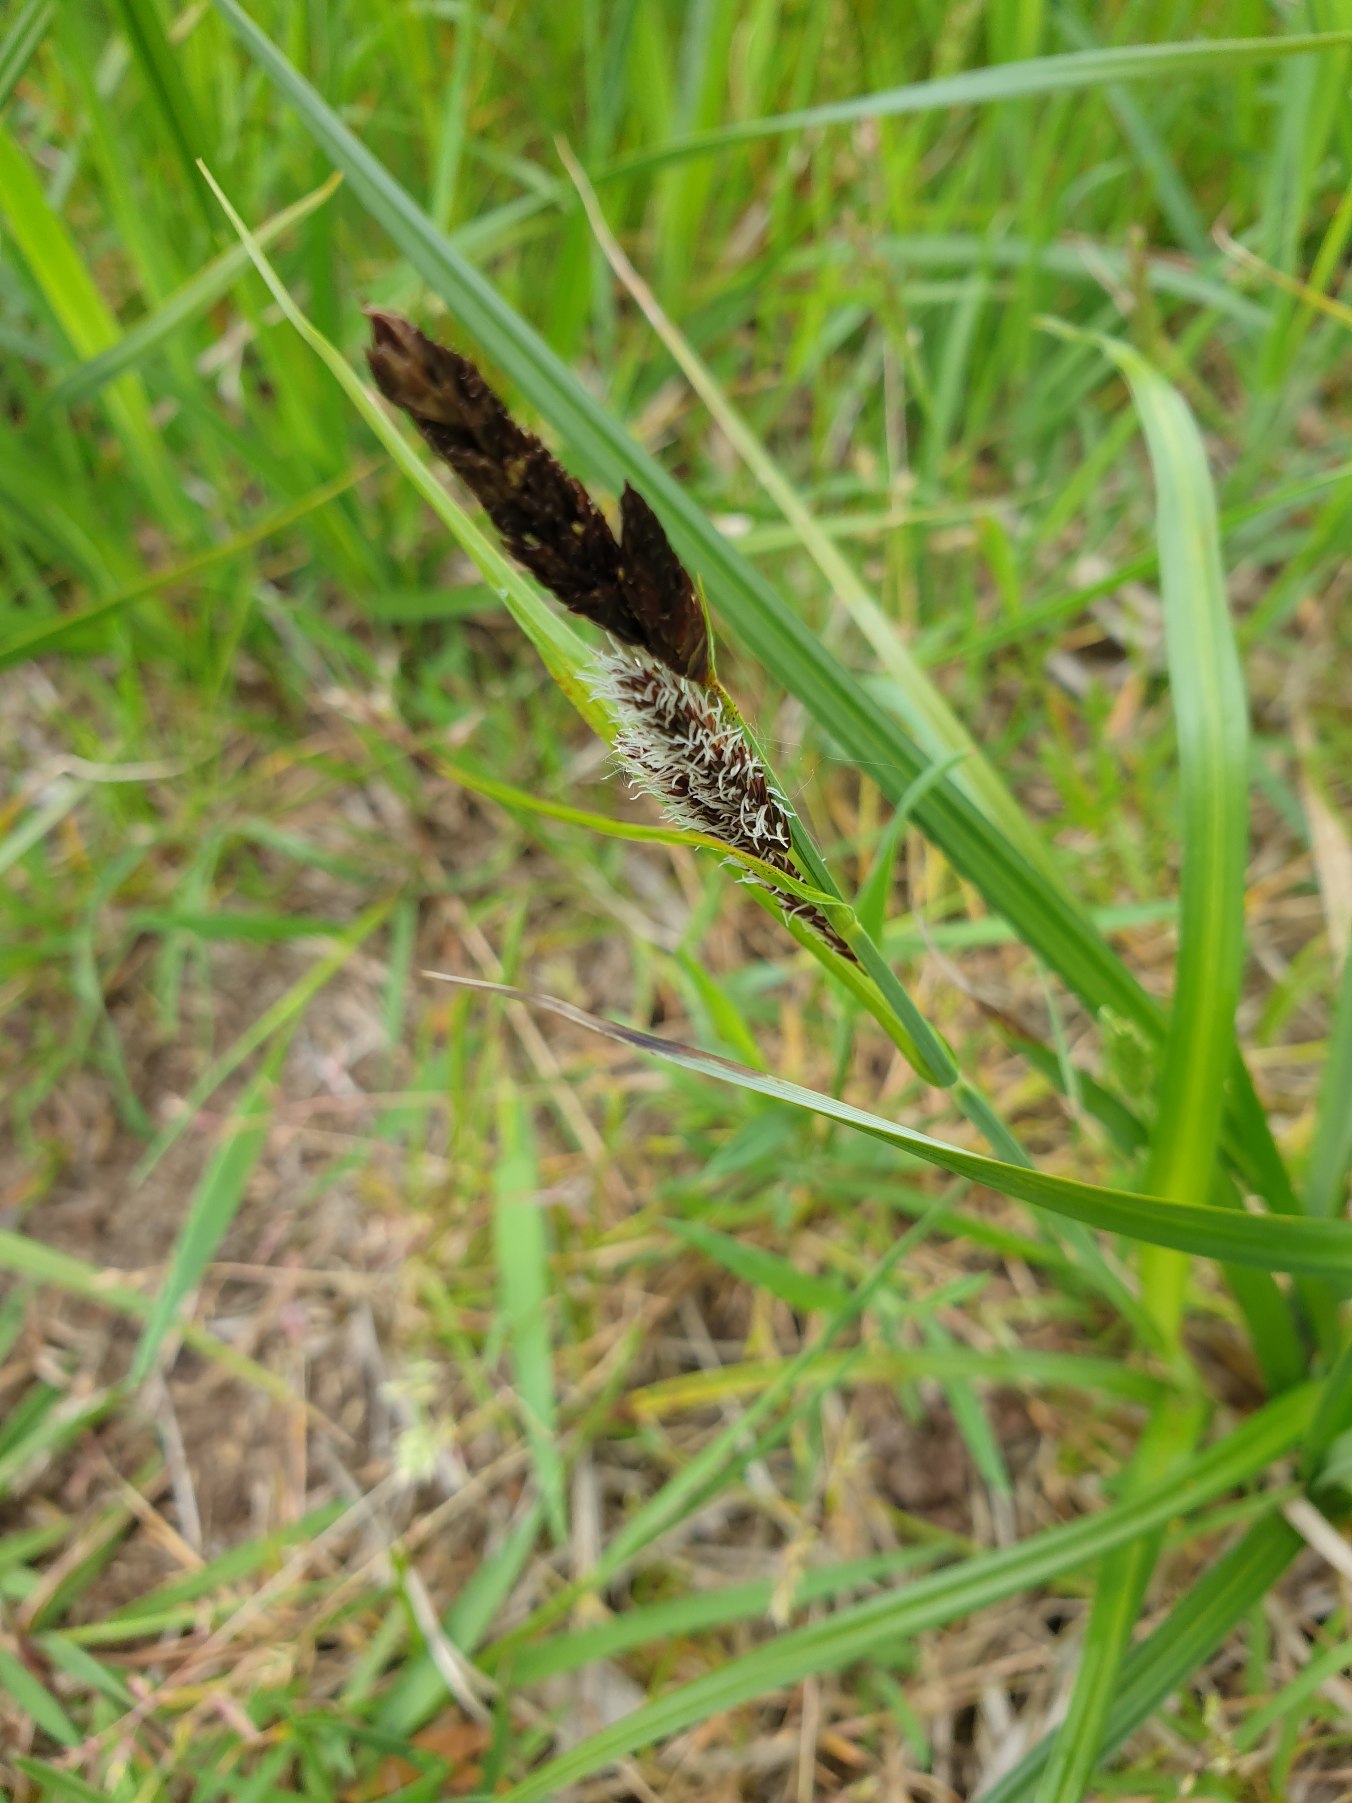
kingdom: Plantae
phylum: Tracheophyta
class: Liliopsida
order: Poales
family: Cyperaceae
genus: Carex
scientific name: Carex
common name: Starslægten
